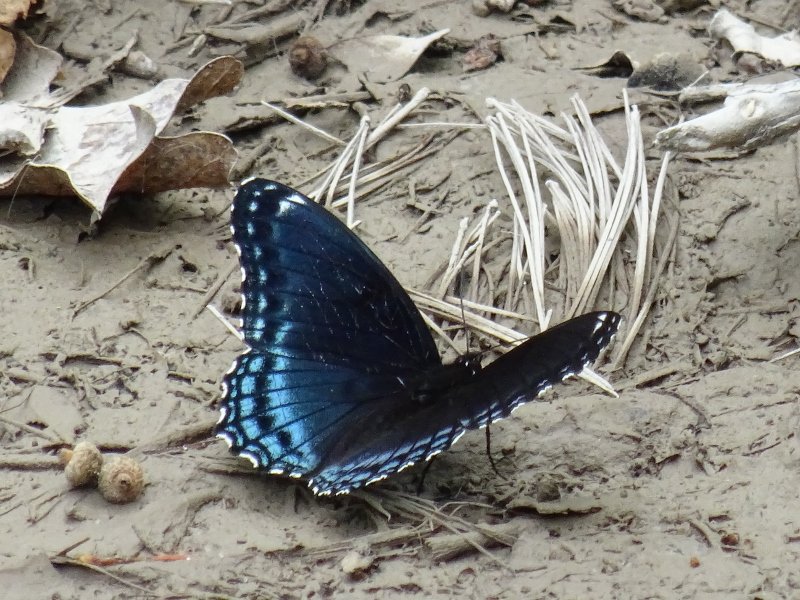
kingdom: Animalia
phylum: Arthropoda
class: Insecta
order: Lepidoptera
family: Nymphalidae
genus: Limenitis
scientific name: Limenitis astyanax
